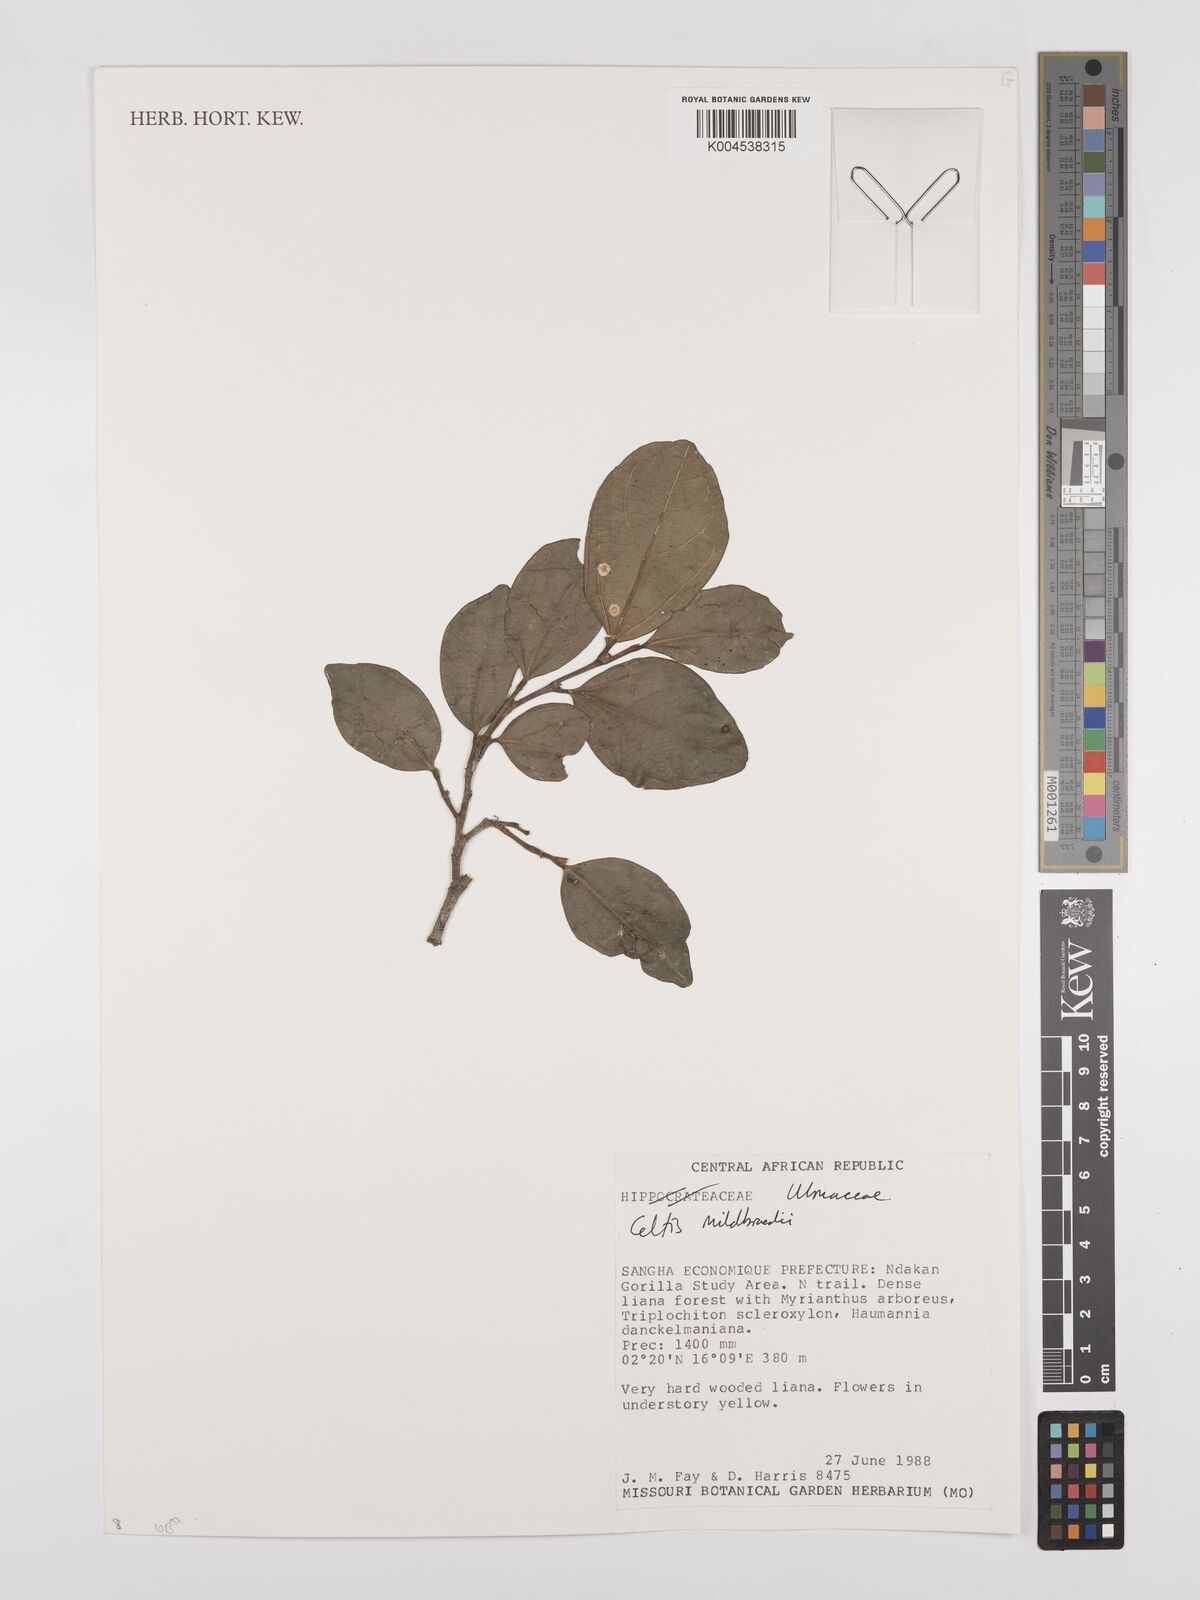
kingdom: Plantae
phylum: Tracheophyta
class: Magnoliopsida
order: Rosales
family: Cannabaceae
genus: Celtis
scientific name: Celtis mildbraedii
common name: Red-fruited stinkwood
